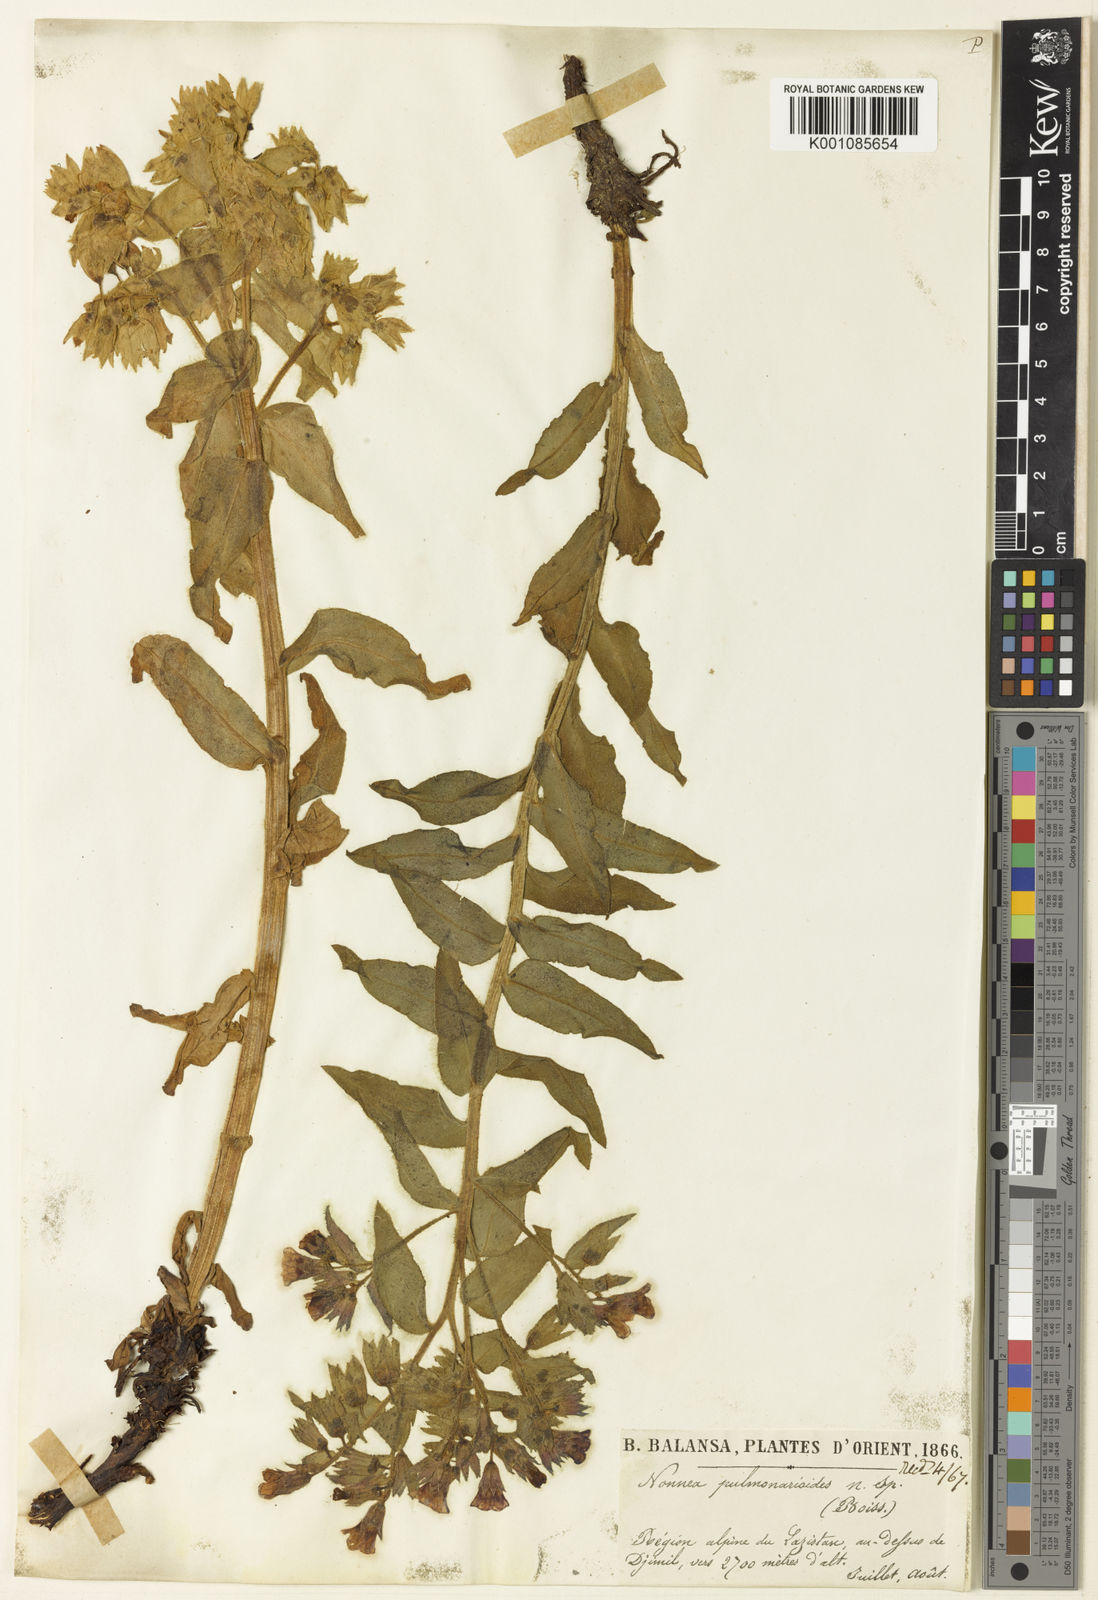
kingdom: Plantae
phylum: Tracheophyta
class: Magnoliopsida
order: Boraginales
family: Boraginaceae
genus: Nonea
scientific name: Nonea pulmonarioides
